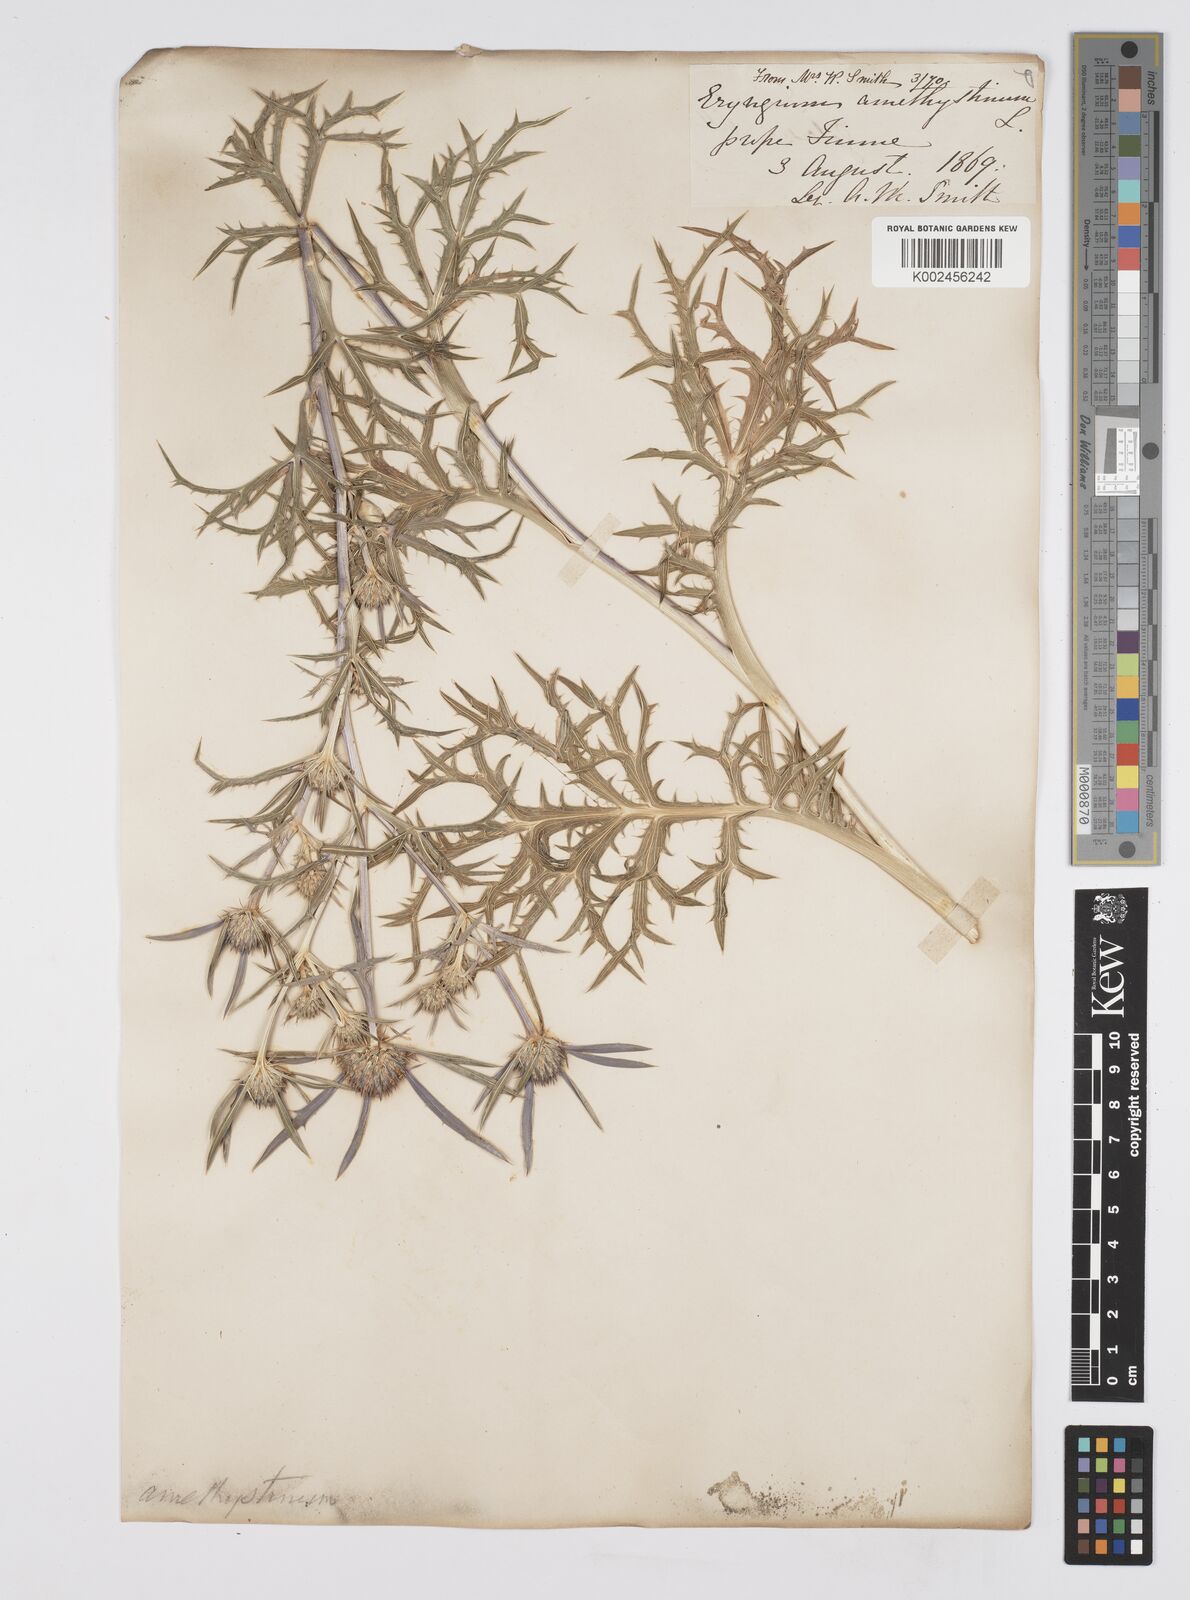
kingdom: Plantae
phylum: Tracheophyta
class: Magnoliopsida
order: Apiales
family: Apiaceae
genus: Eryngium
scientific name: Eryngium amethystinum
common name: Amethyst eryngo
